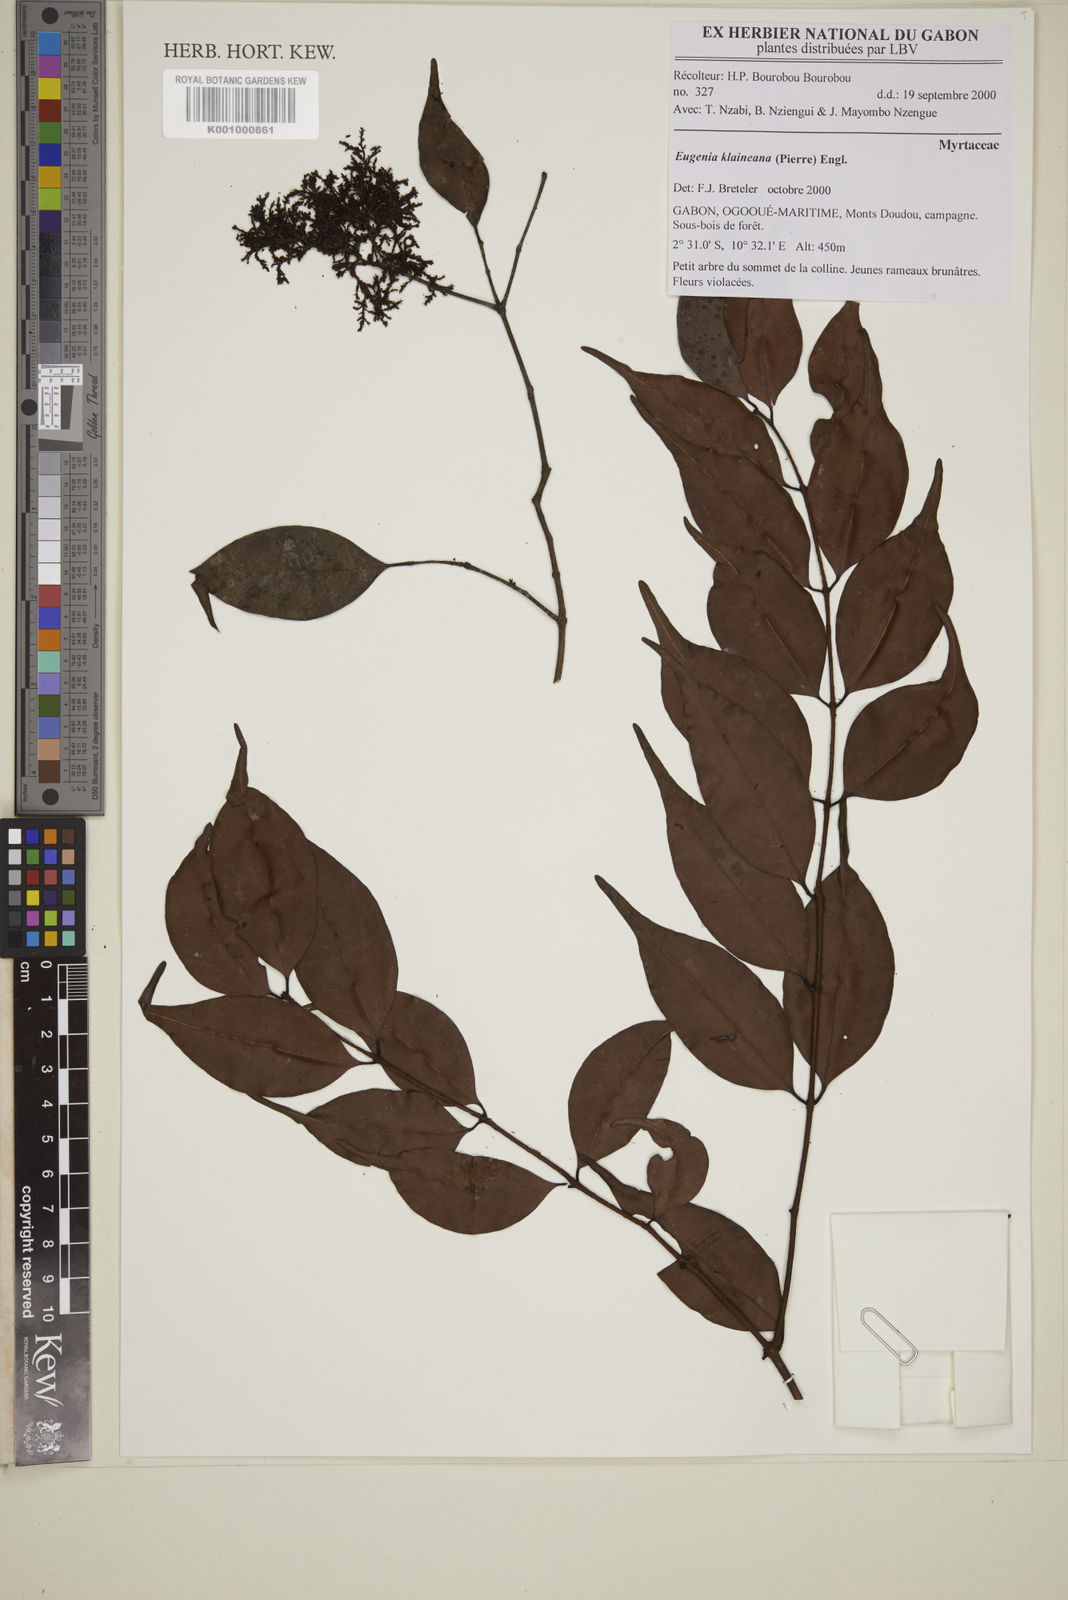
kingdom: Plantae
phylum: Tracheophyta
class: Magnoliopsida
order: Myrtales
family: Myrtaceae
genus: Eugenia
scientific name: Eugenia klaineana
